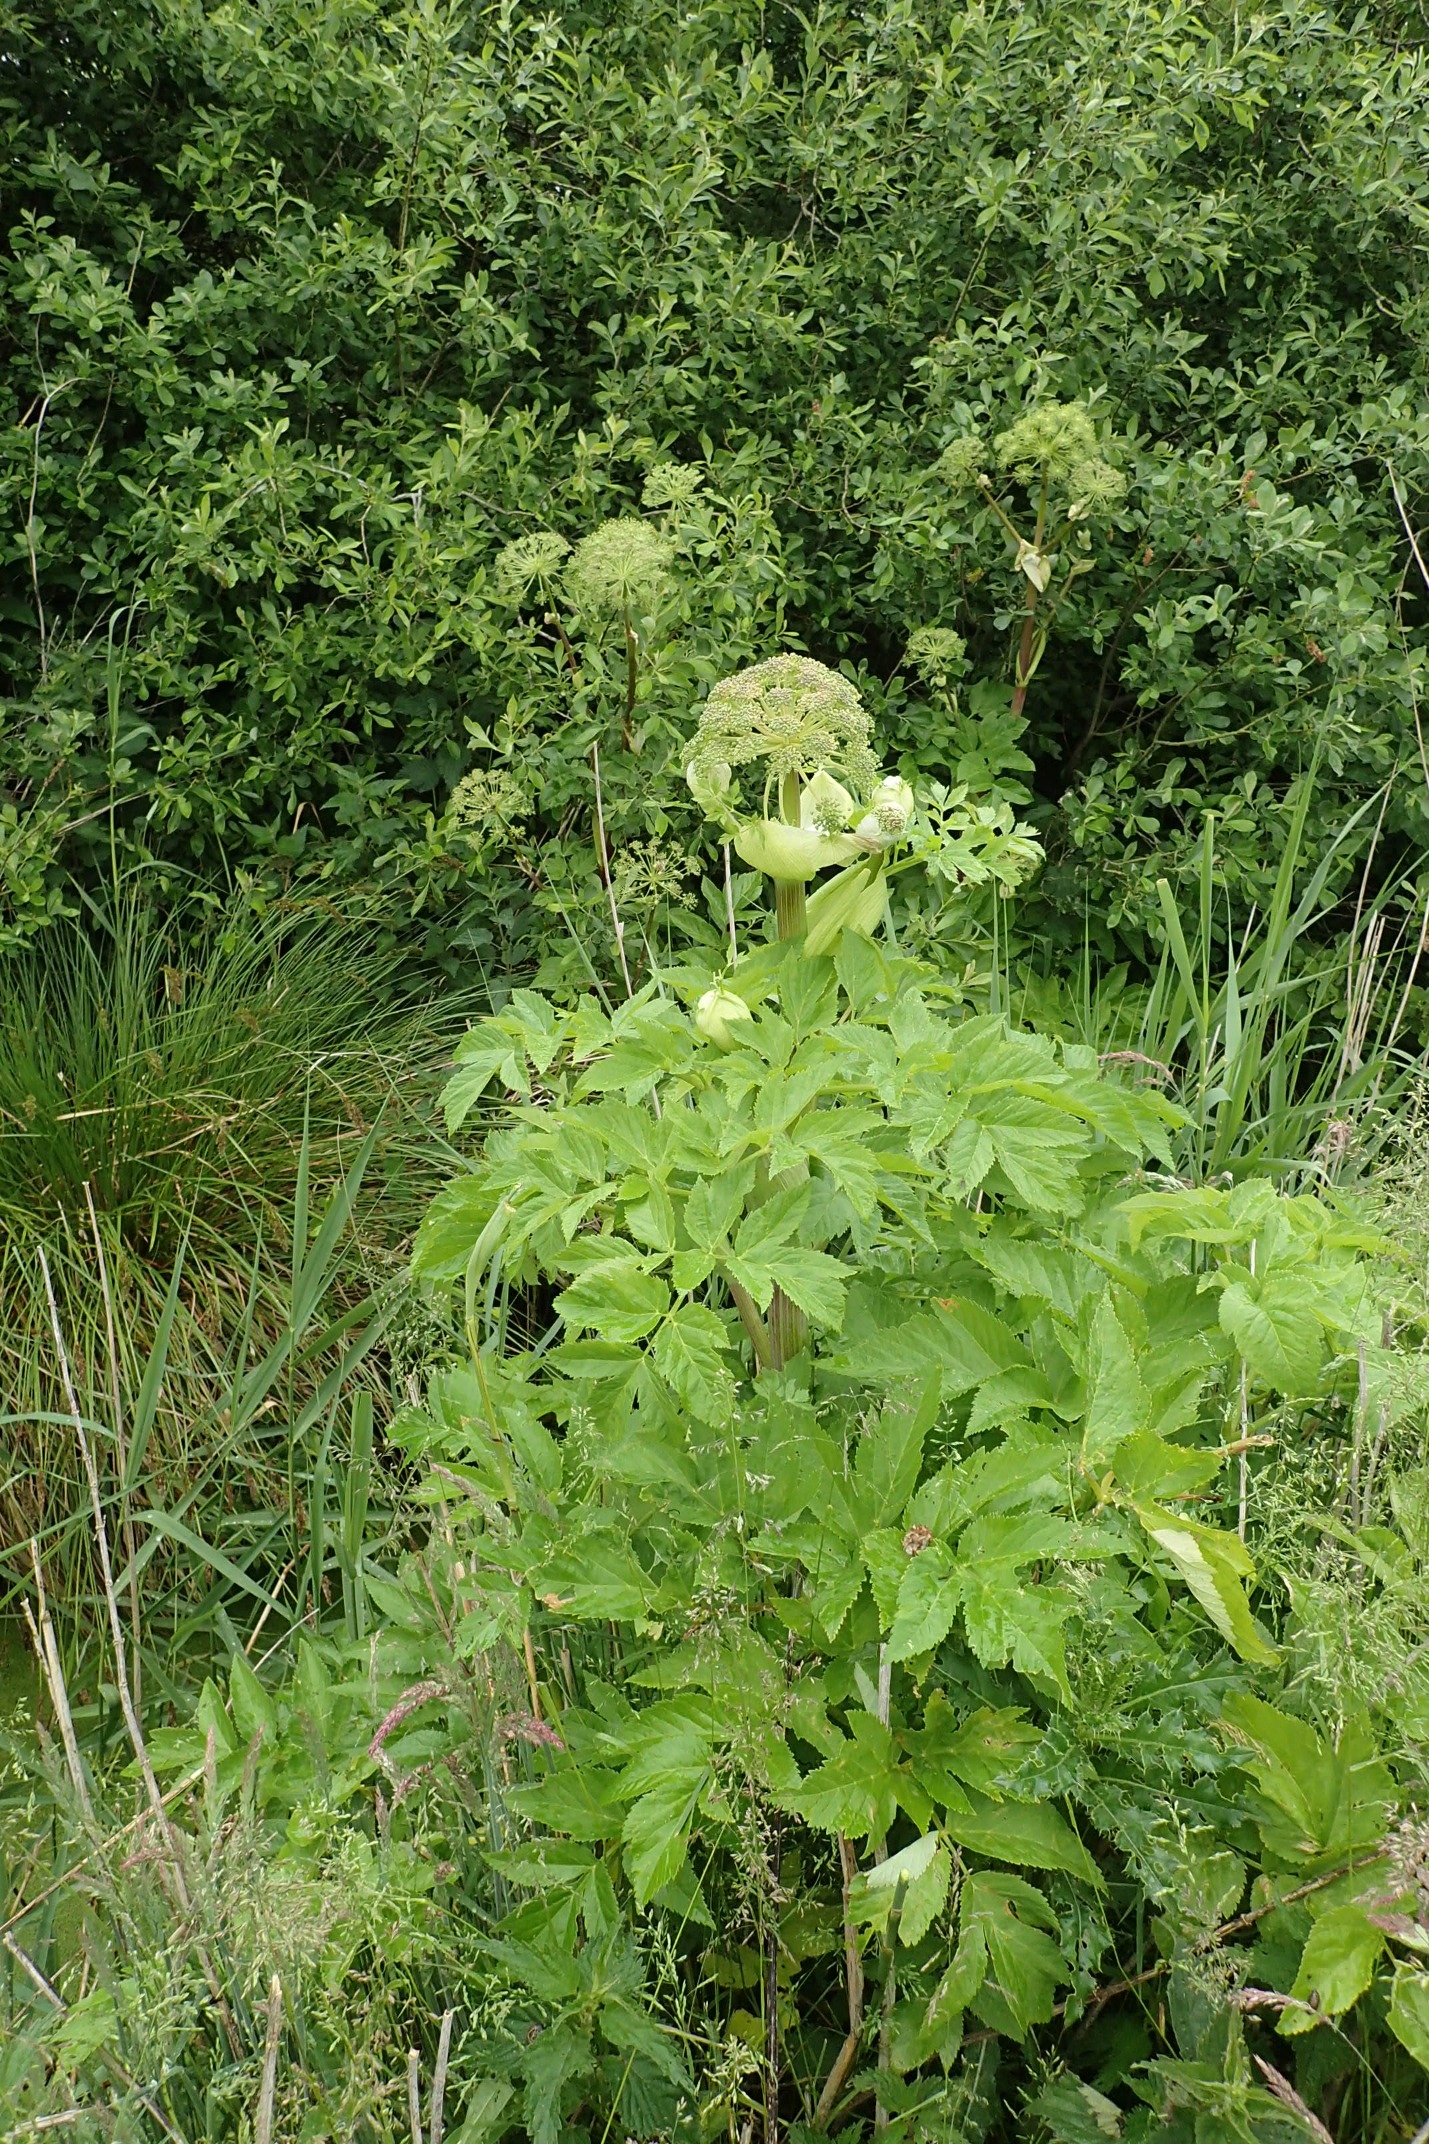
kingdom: Plantae
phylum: Tracheophyta
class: Magnoliopsida
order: Apiales
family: Apiaceae
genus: Angelica
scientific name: Angelica archangelica
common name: Strand-kvan
